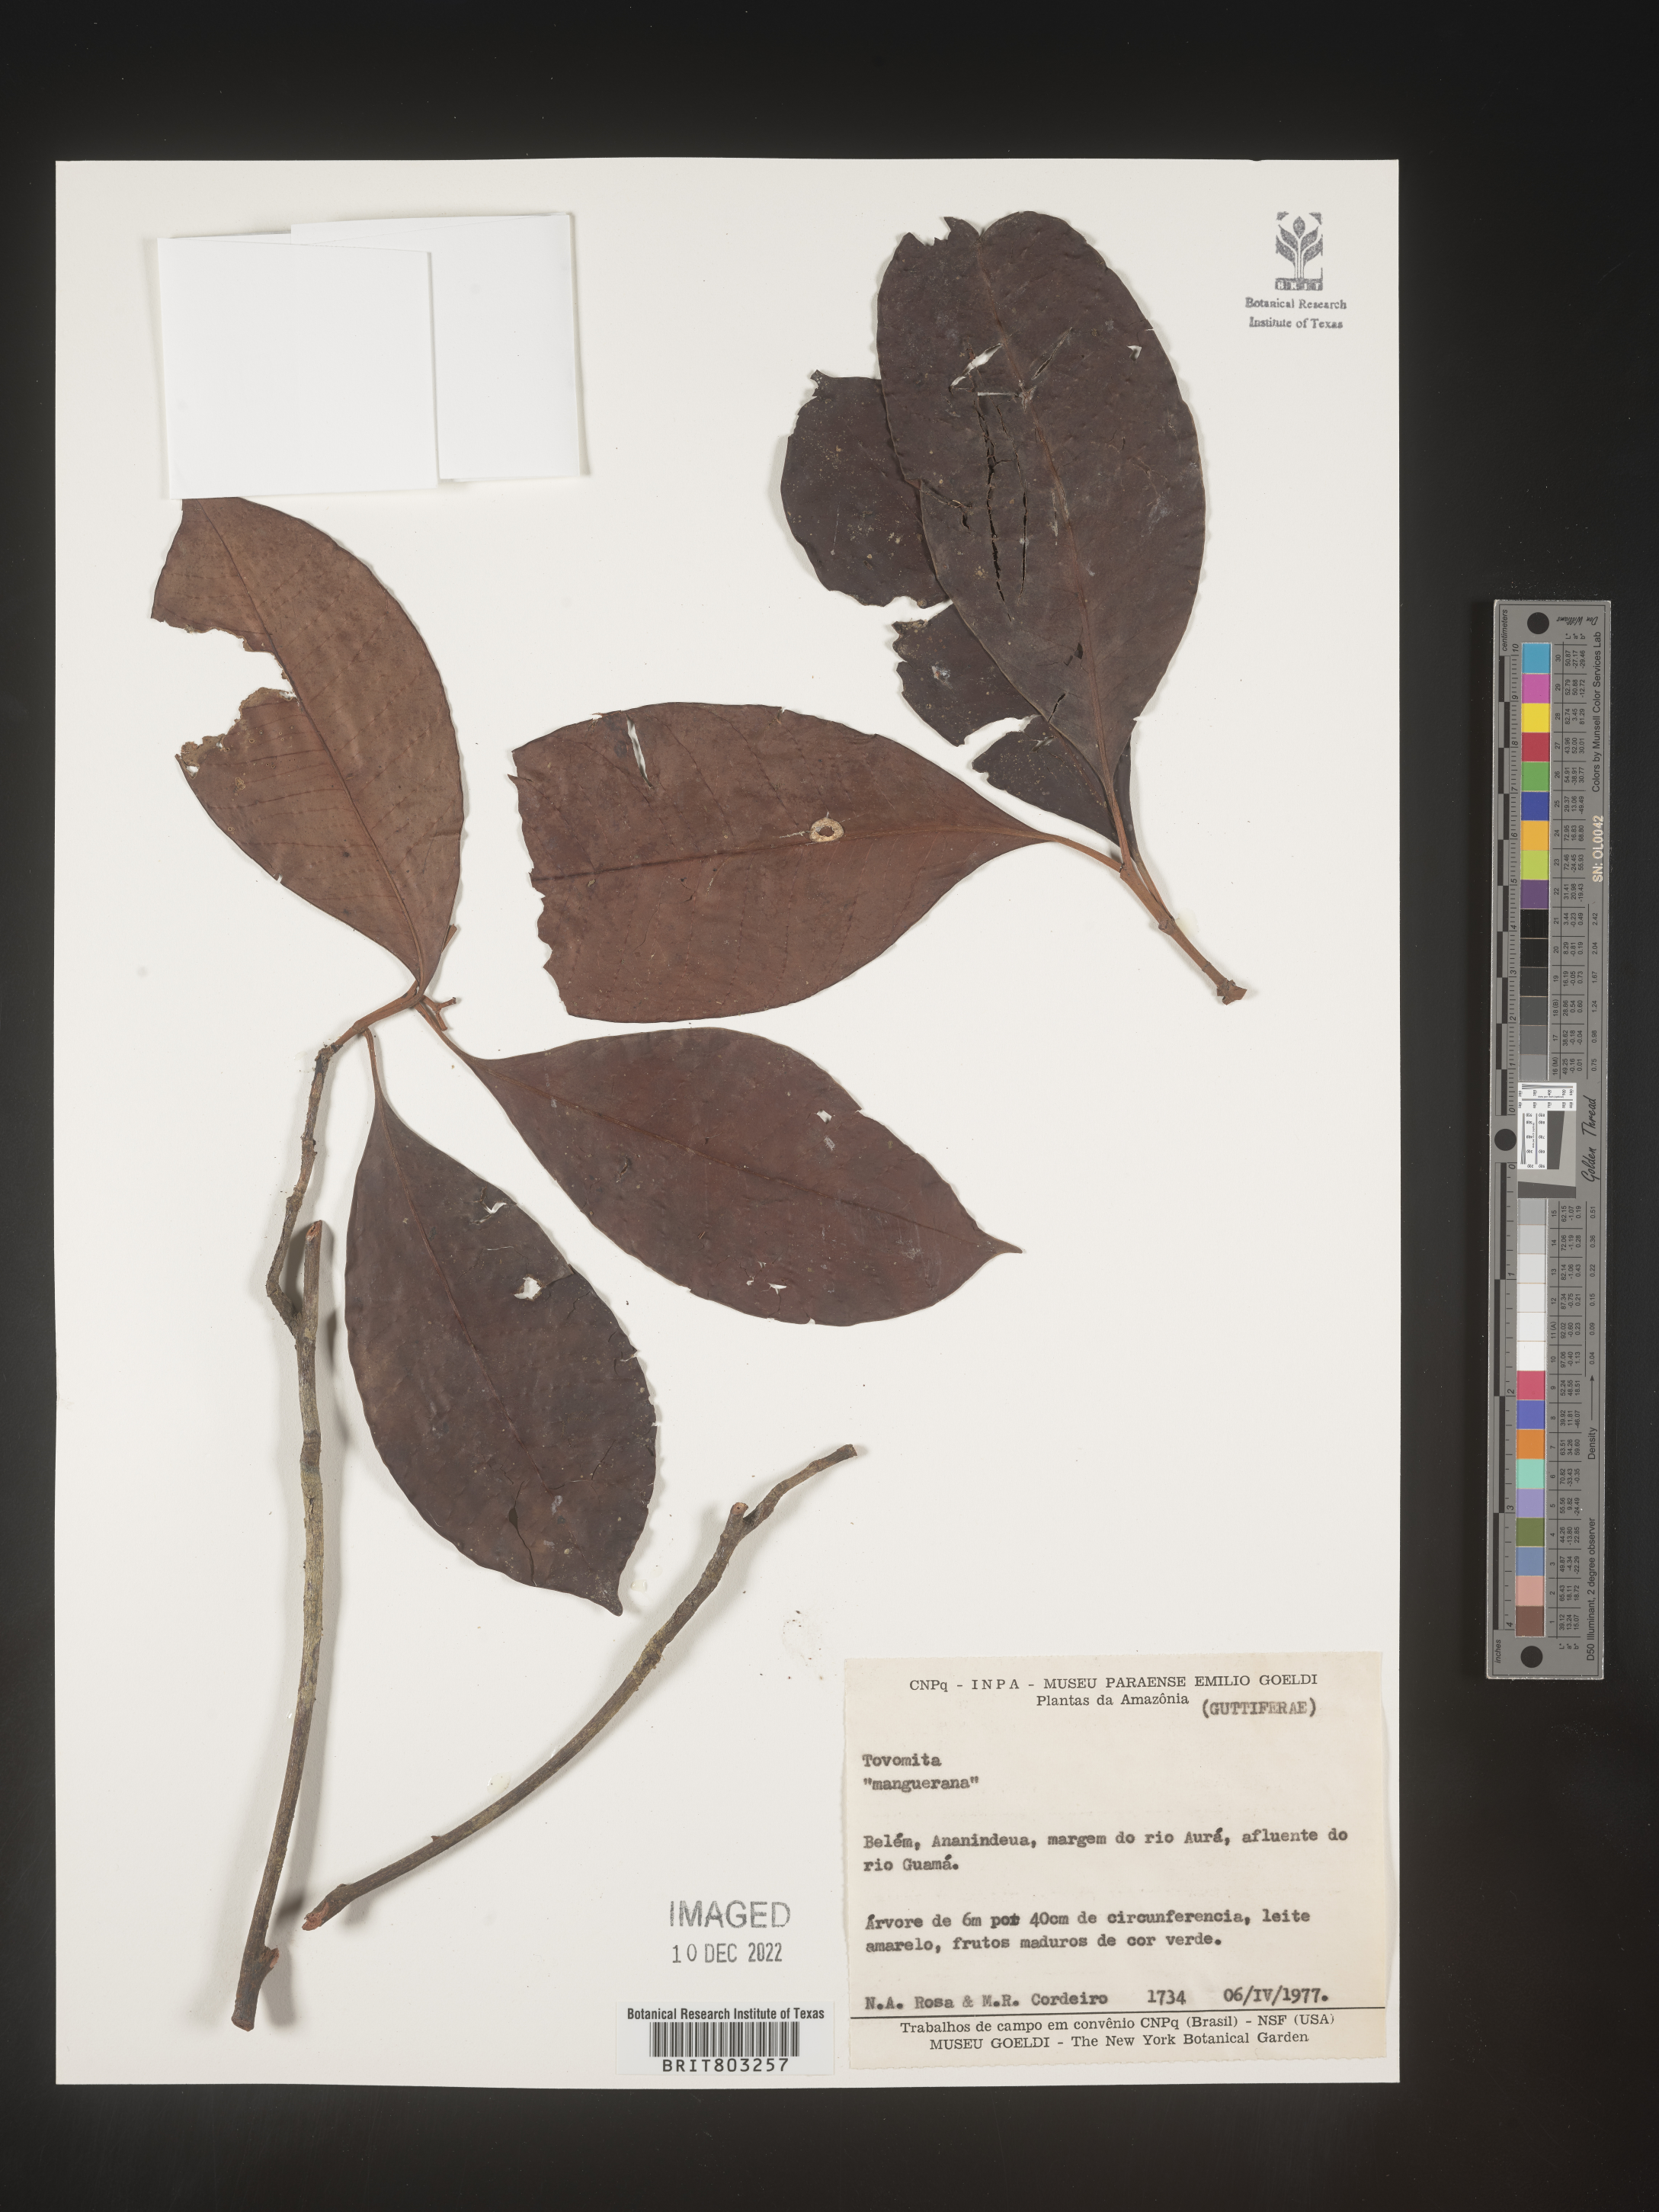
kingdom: Plantae
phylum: Tracheophyta
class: Magnoliopsida
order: Malpighiales
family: Clusiaceae
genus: Tovomita
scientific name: Tovomita
